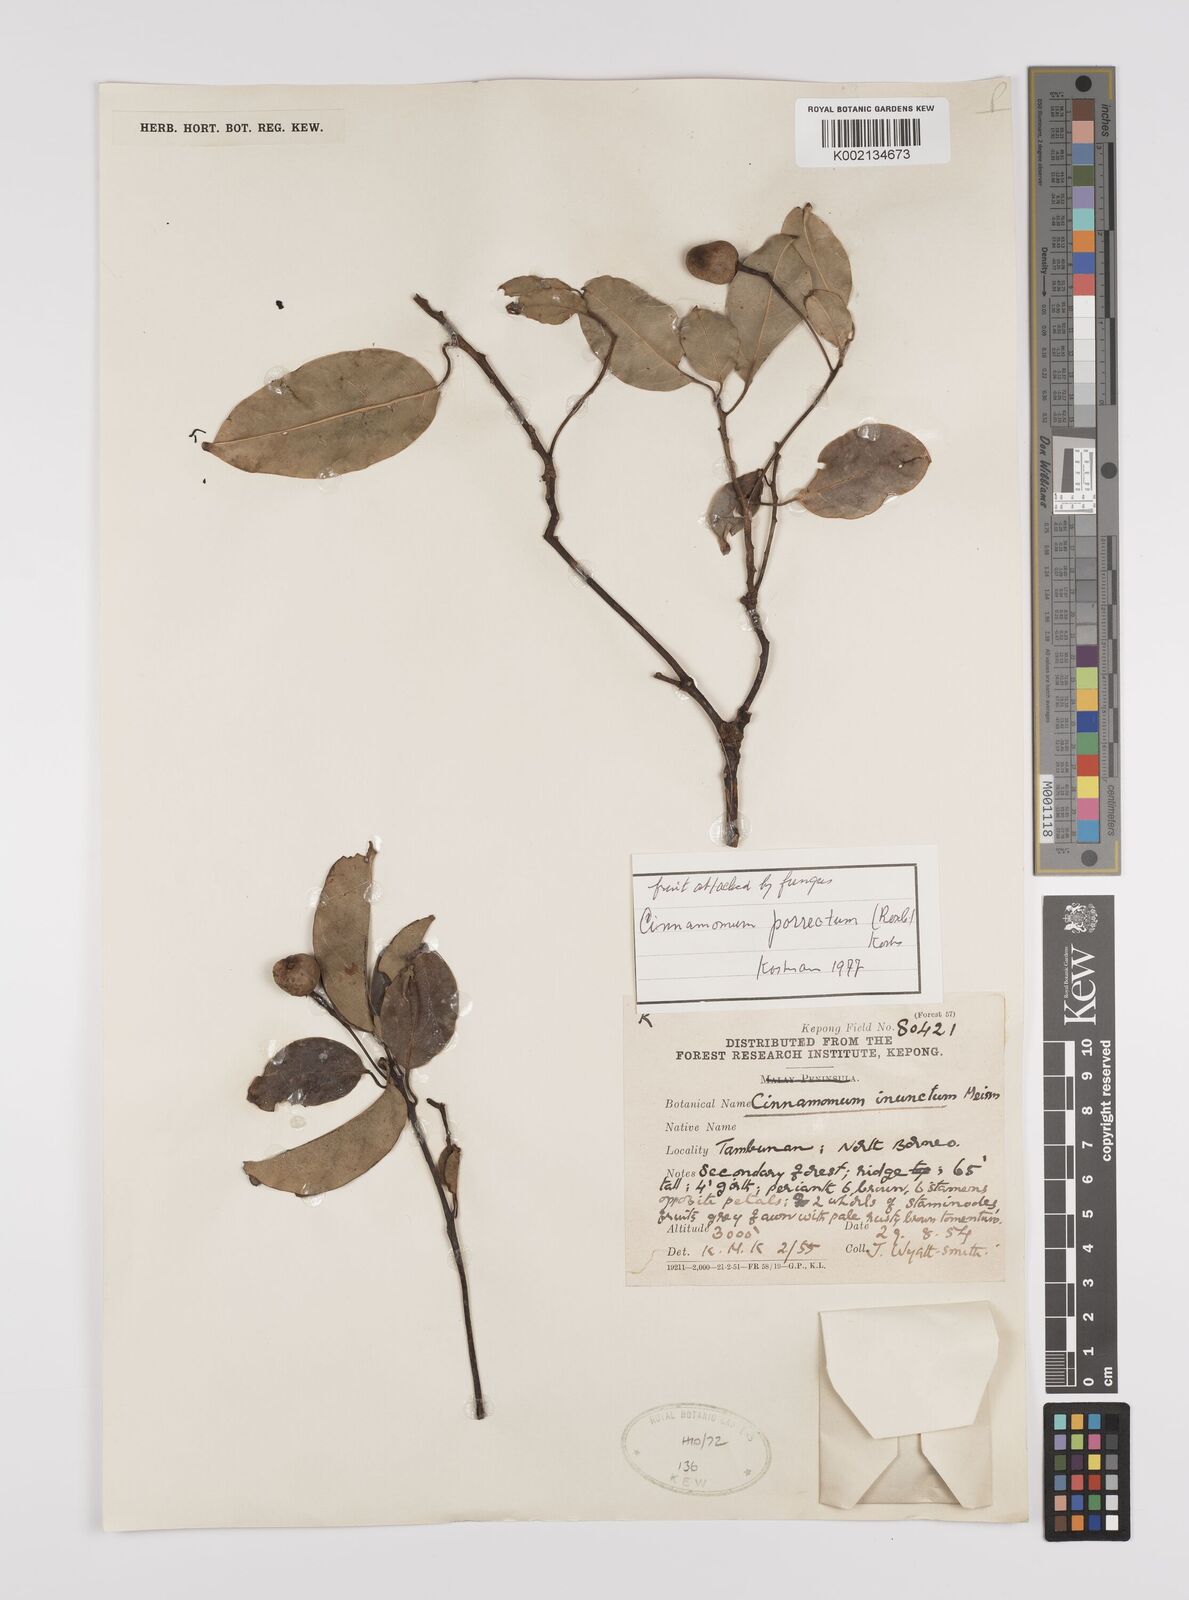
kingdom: Plantae
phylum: Tracheophyta
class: Magnoliopsida
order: Laurales
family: Lauraceae
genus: Cinnamomum
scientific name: Cinnamomum parthenoxylon
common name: Martaban camphor wood
